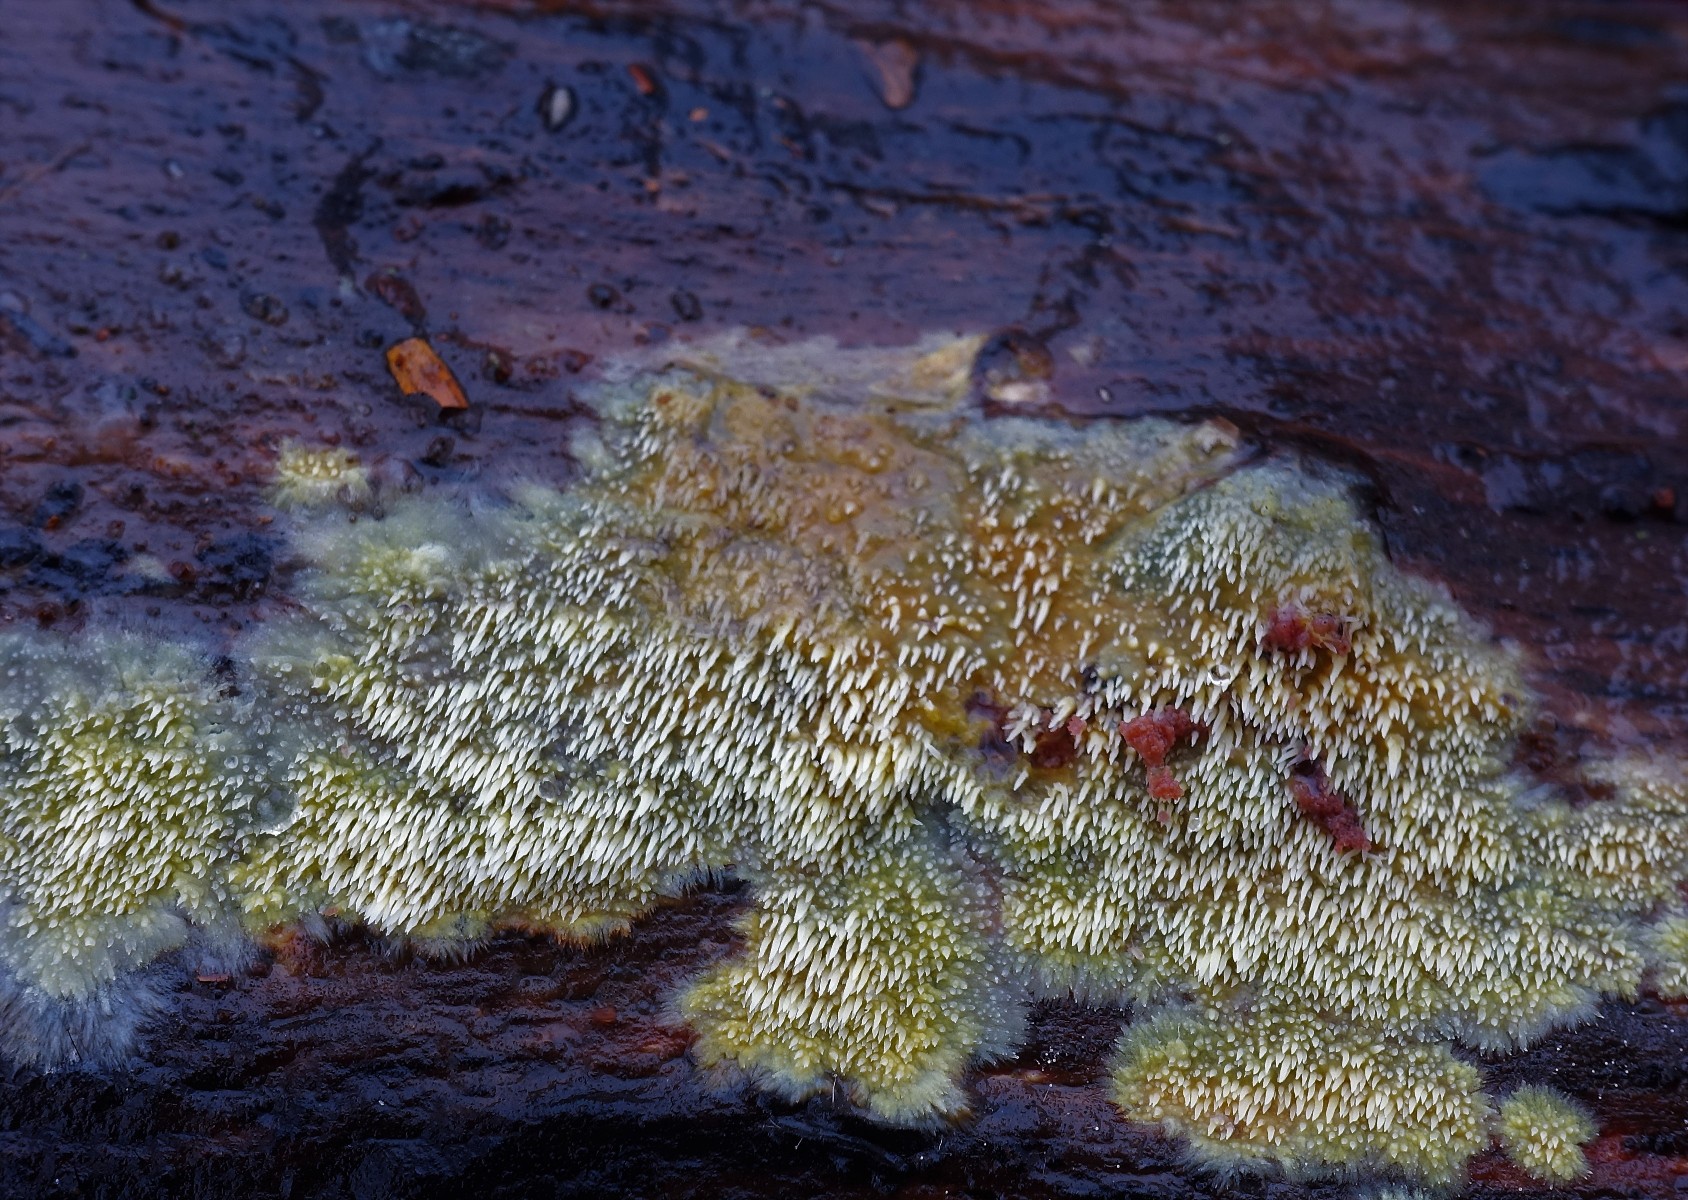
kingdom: Fungi
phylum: Basidiomycota
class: Agaricomycetes
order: Polyporales
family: Meruliaceae
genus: Mycoacia
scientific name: Mycoacia uda
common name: citrongul vokspig
